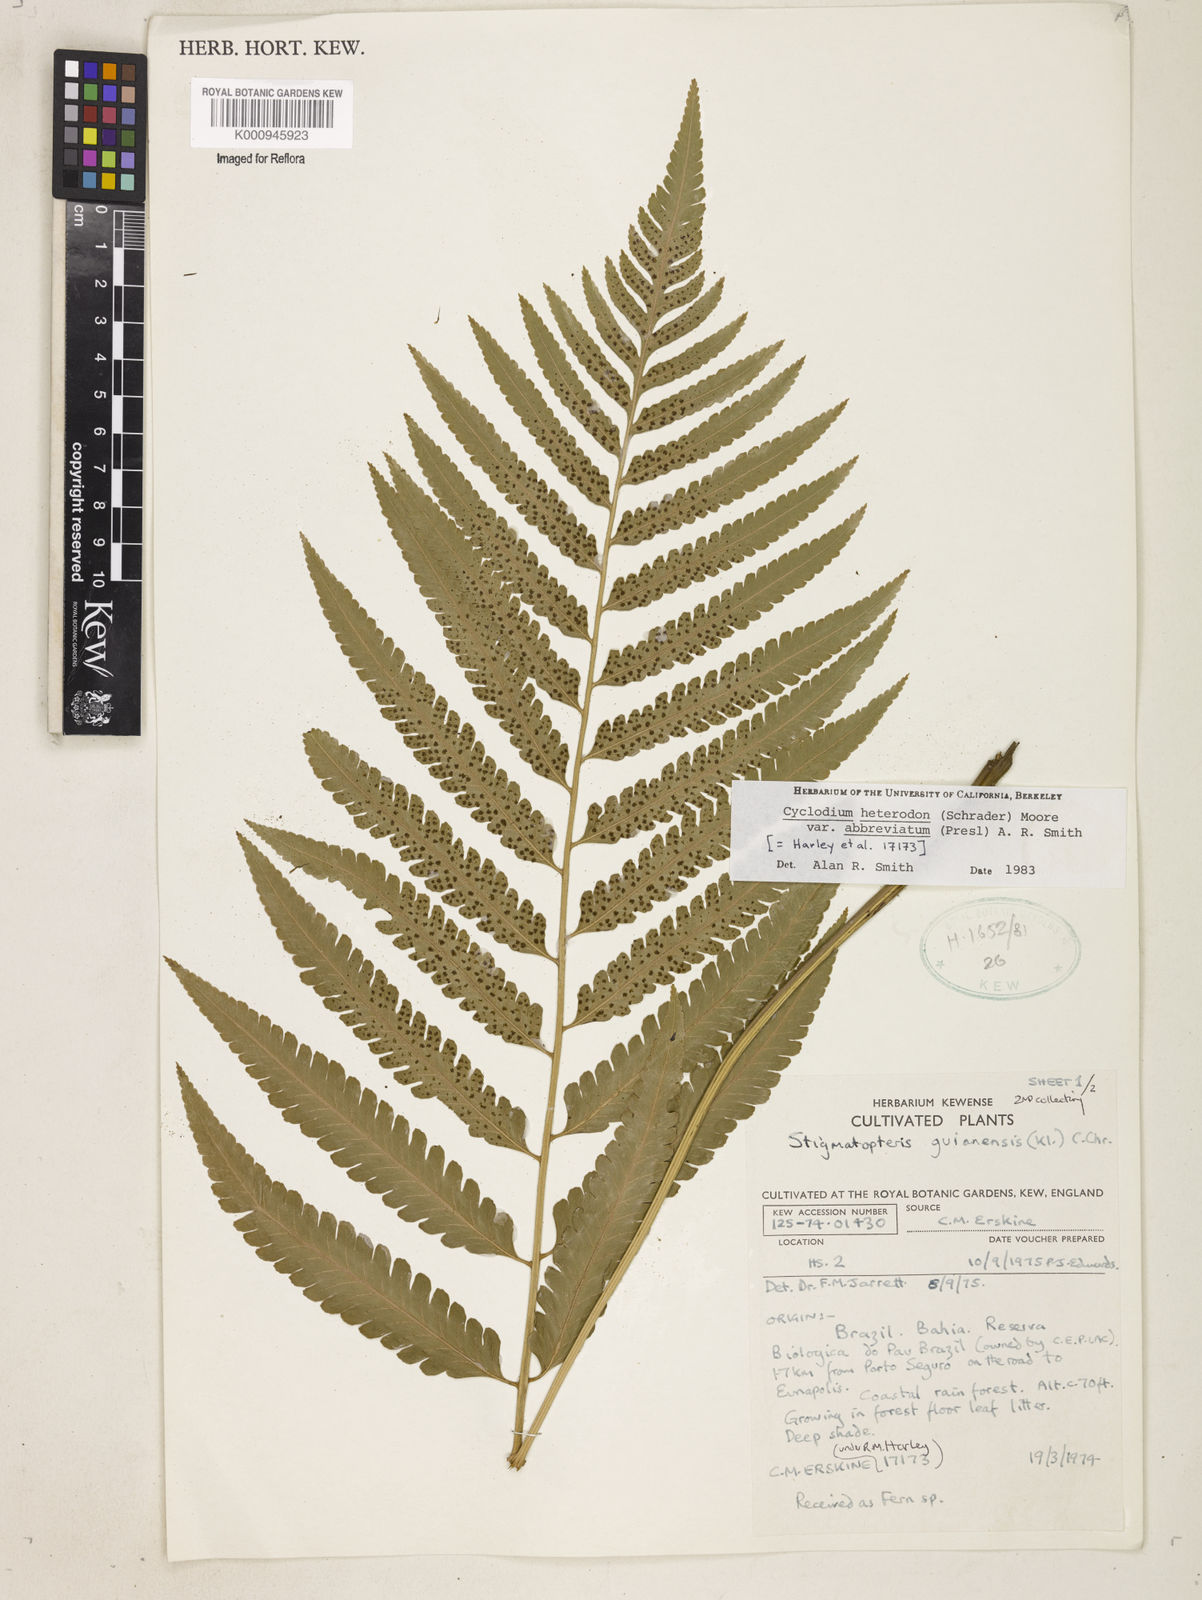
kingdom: Plantae
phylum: Tracheophyta
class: Polypodiopsida
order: Polypodiales
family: Dryopteridaceae
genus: Cyclodium
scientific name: Cyclodium heterodon
